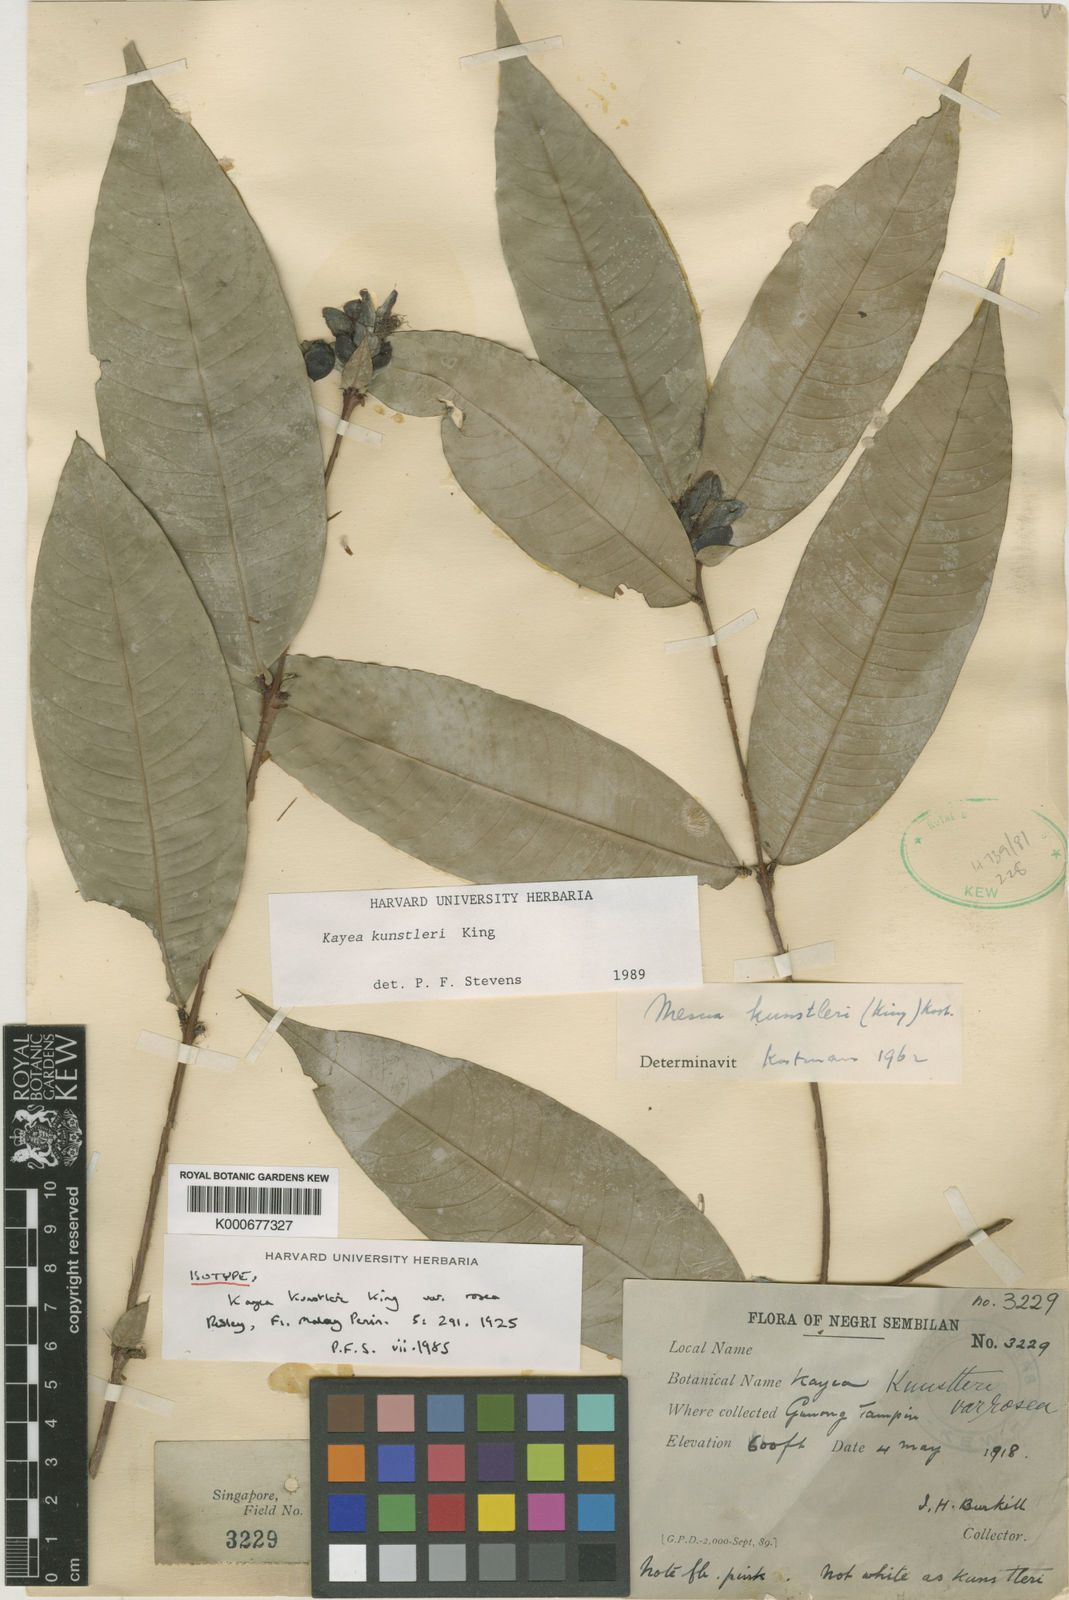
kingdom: Plantae
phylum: Tracheophyta
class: Magnoliopsida
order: Malpighiales
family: Calophyllaceae
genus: Kayea
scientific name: Kayea kunstleri
